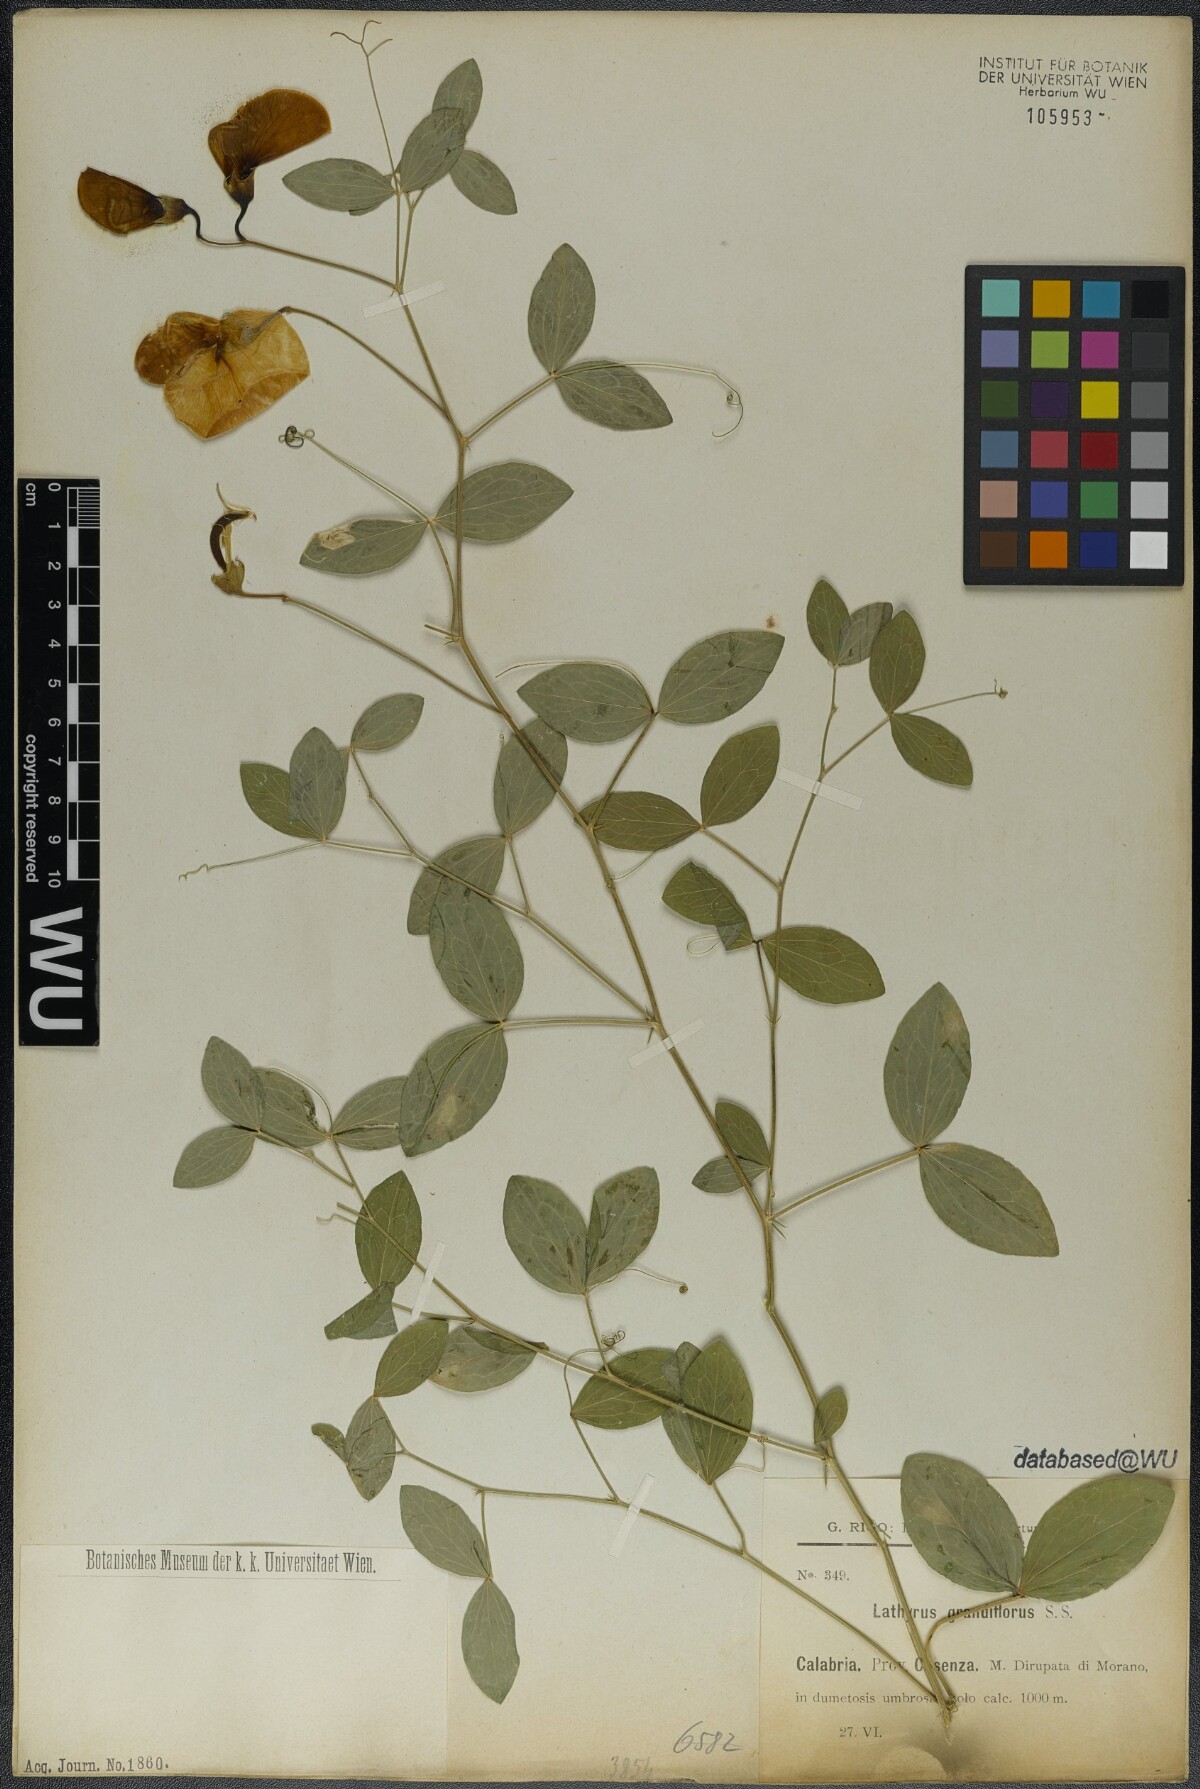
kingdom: Plantae
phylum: Tracheophyta
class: Magnoliopsida
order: Fabales
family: Fabaceae
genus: Lathyrus
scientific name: Lathyrus grandiflorus
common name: Two-flowered everlasting-pea
